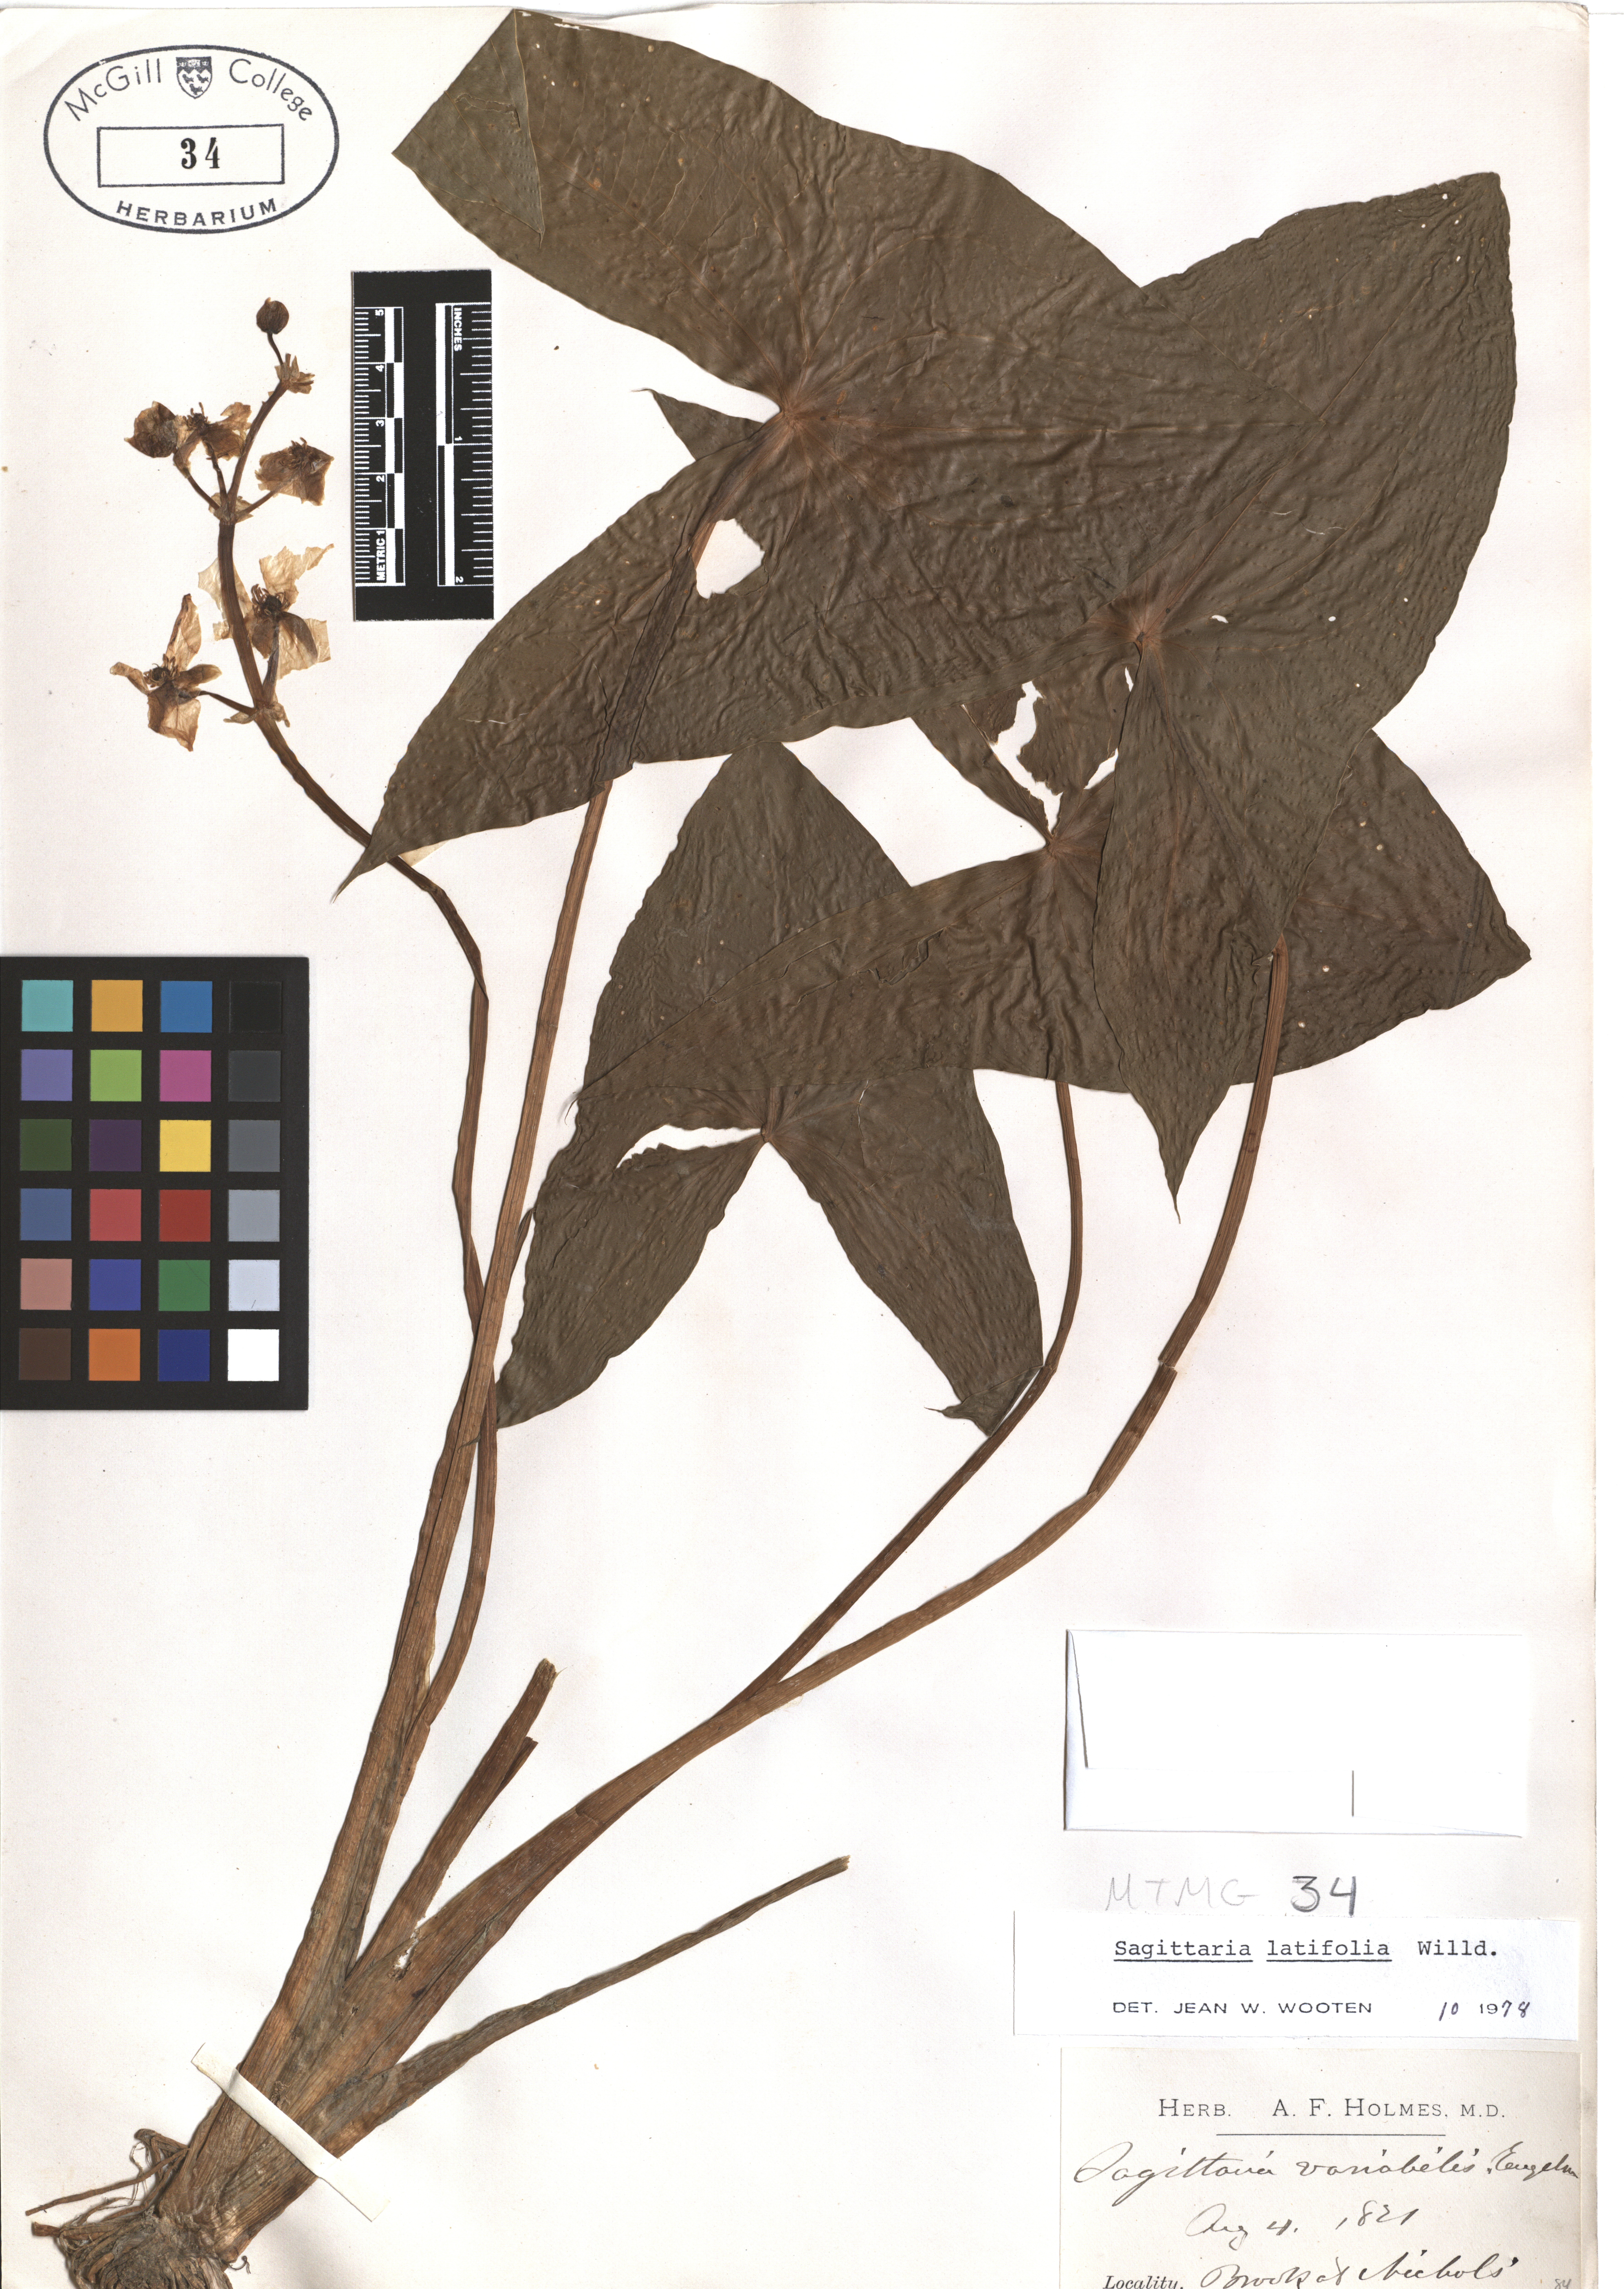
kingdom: Plantae
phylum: Tracheophyta
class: Liliopsida
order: Alismatales
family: Alismataceae
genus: Sagittaria
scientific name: Sagittaria latifolia
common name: Duck-potato
